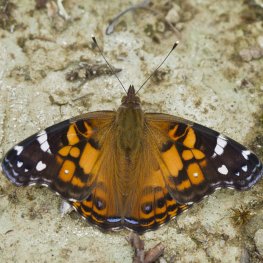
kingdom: Animalia
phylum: Arthropoda
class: Insecta
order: Lepidoptera
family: Nymphalidae
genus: Vanessa
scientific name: Vanessa virginiensis
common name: American Lady
